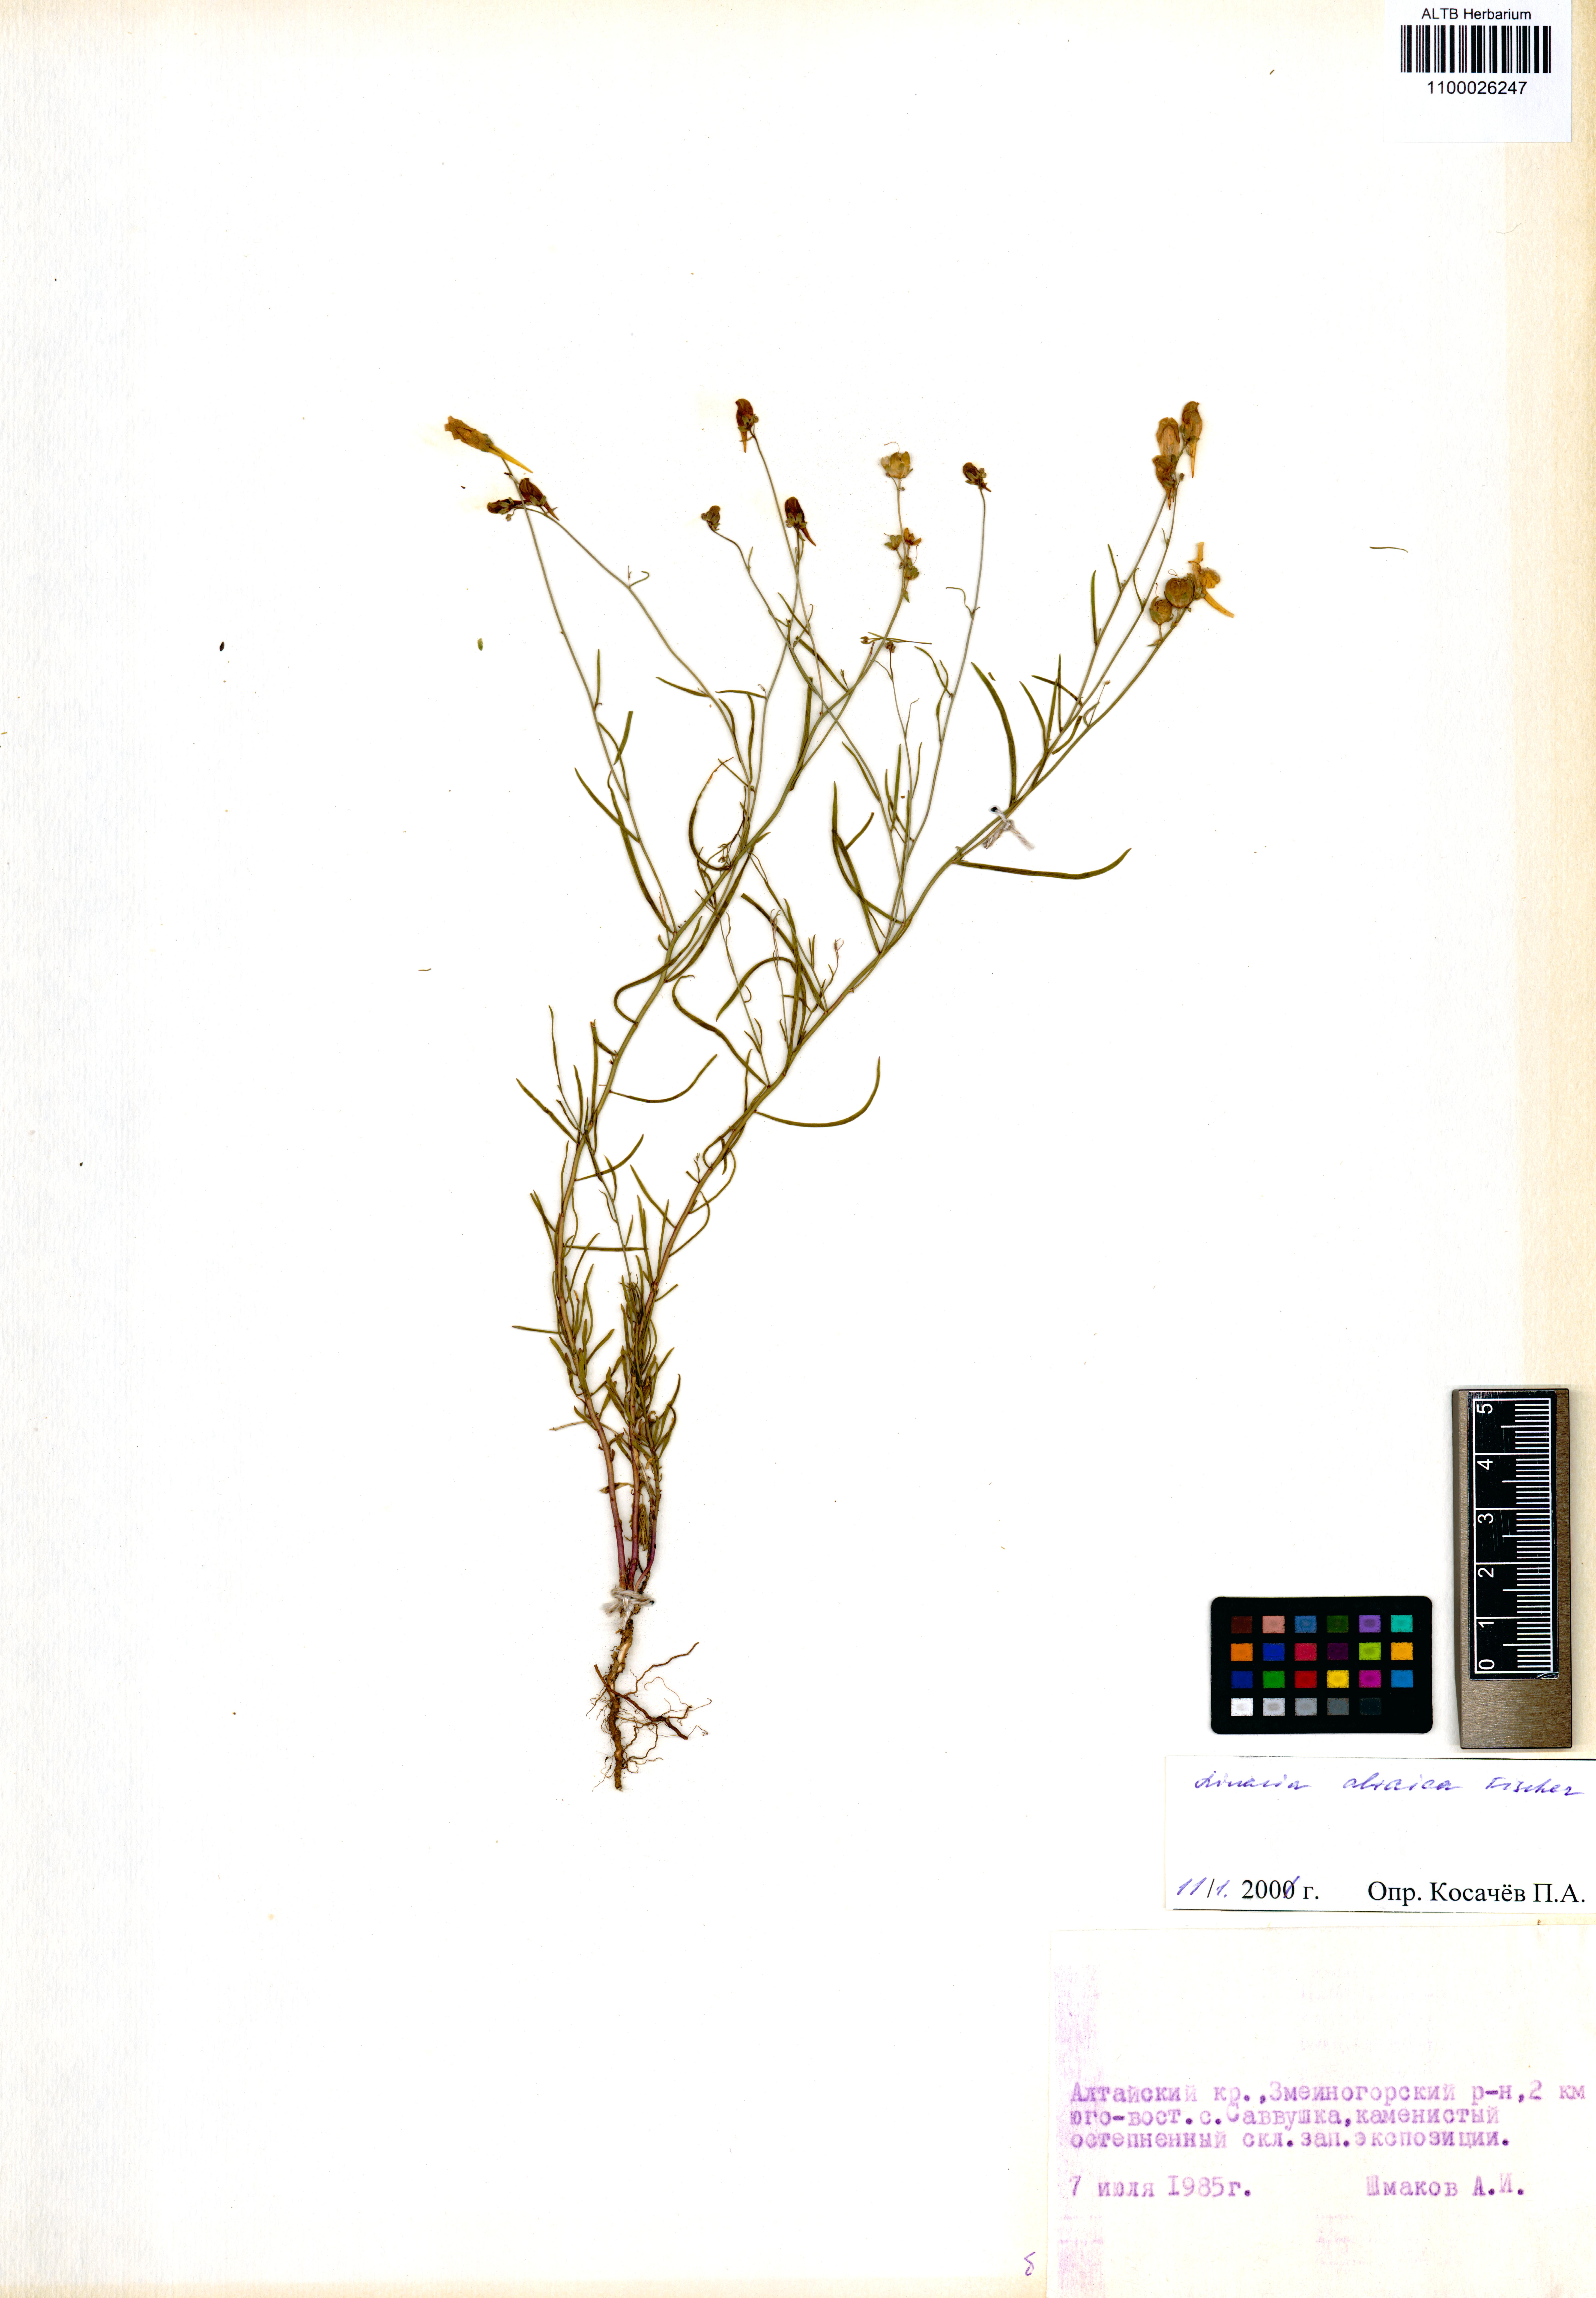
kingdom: Plantae
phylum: Tracheophyta
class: Magnoliopsida
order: Lamiales
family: Plantaginaceae
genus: Linaria
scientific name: Linaria altaica
